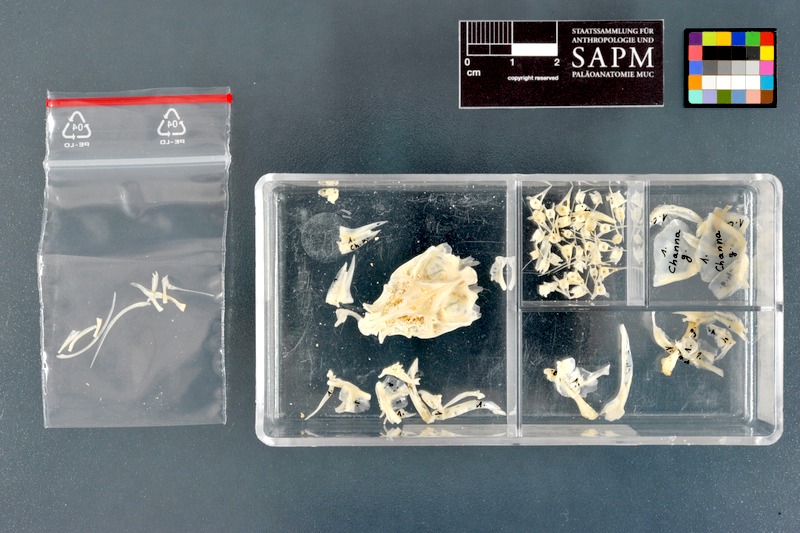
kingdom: Animalia
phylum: Chordata
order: Perciformes
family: Channidae
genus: Channa
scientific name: Channa gachua
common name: Dwarf snakehead
